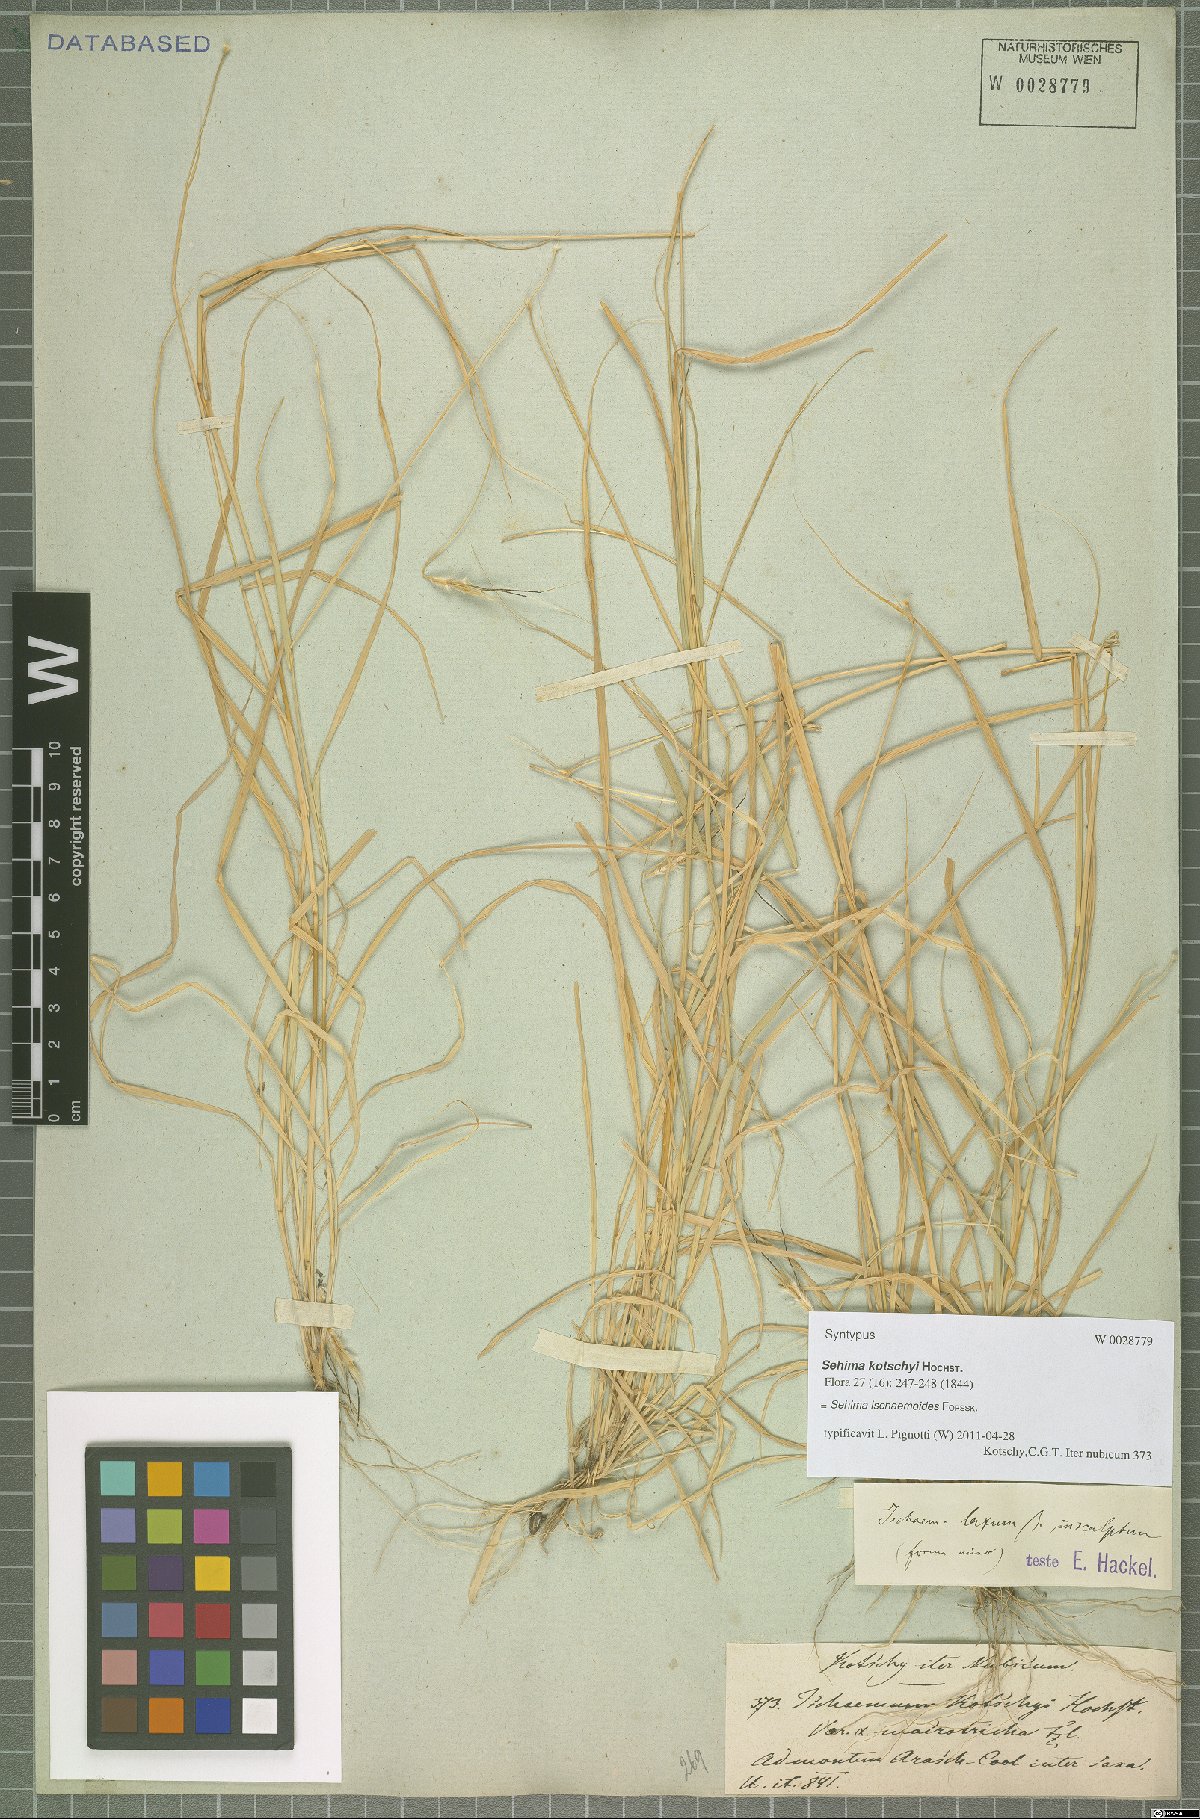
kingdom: Plantae
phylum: Tracheophyta
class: Liliopsida
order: Poales
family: Poaceae
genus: Sehima
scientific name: Sehima ischaemoides
